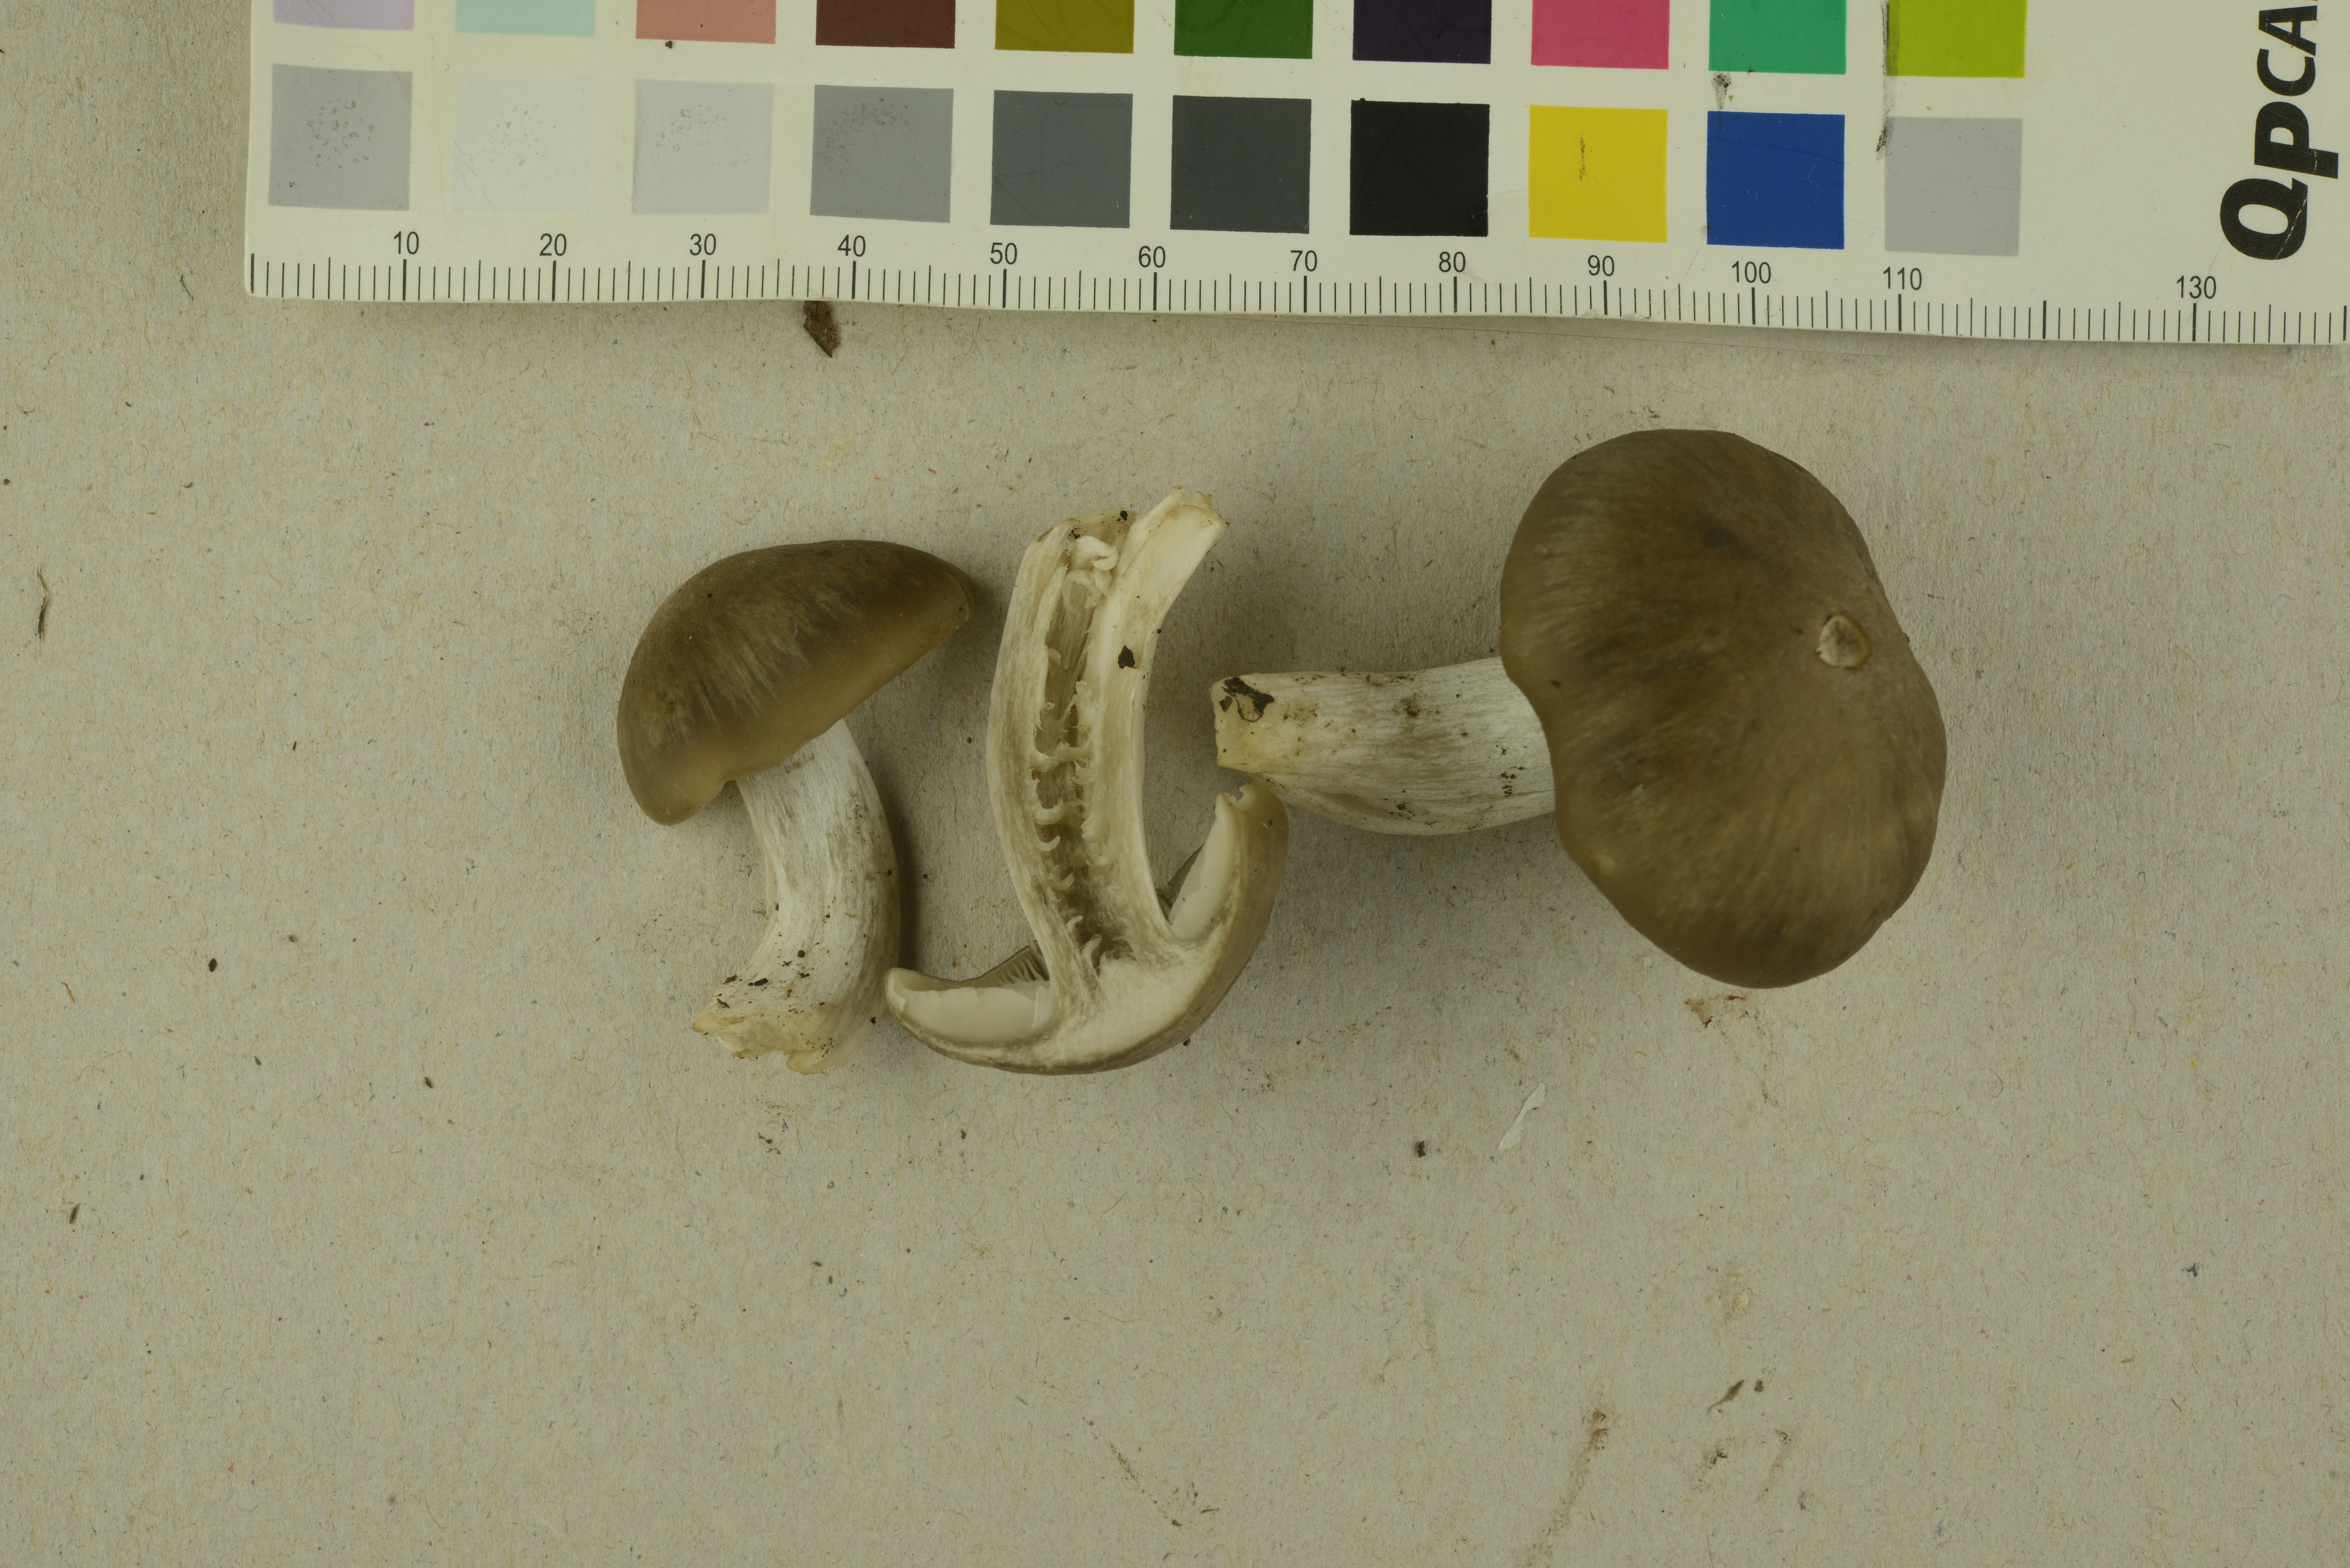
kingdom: Fungi
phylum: Basidiomycota
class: Agaricomycetes
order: Agaricales
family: Entolomataceae
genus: Entoloma
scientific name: Entoloma noordeloosii
